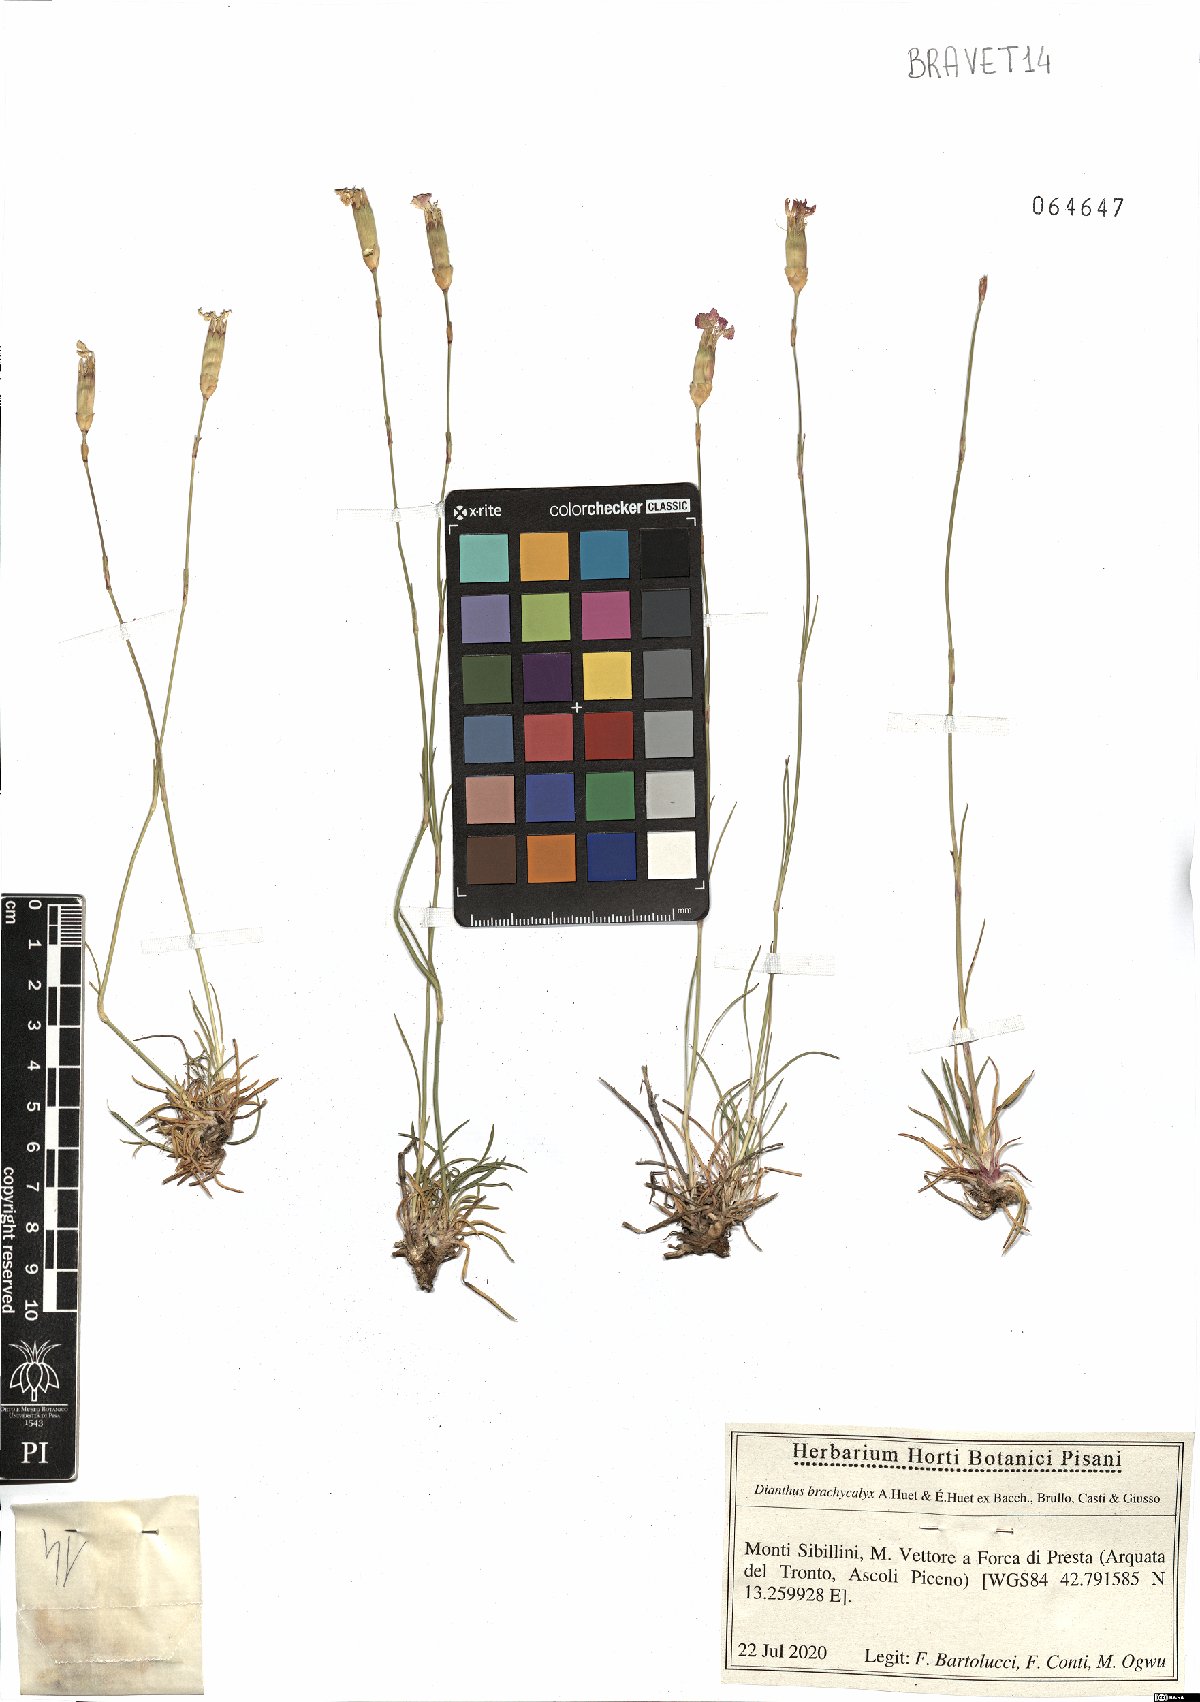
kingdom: Plantae
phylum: Tracheophyta
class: Magnoliopsida
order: Caryophyllales
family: Caryophyllaceae
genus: Dianthus
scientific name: Dianthus brachycalyx
